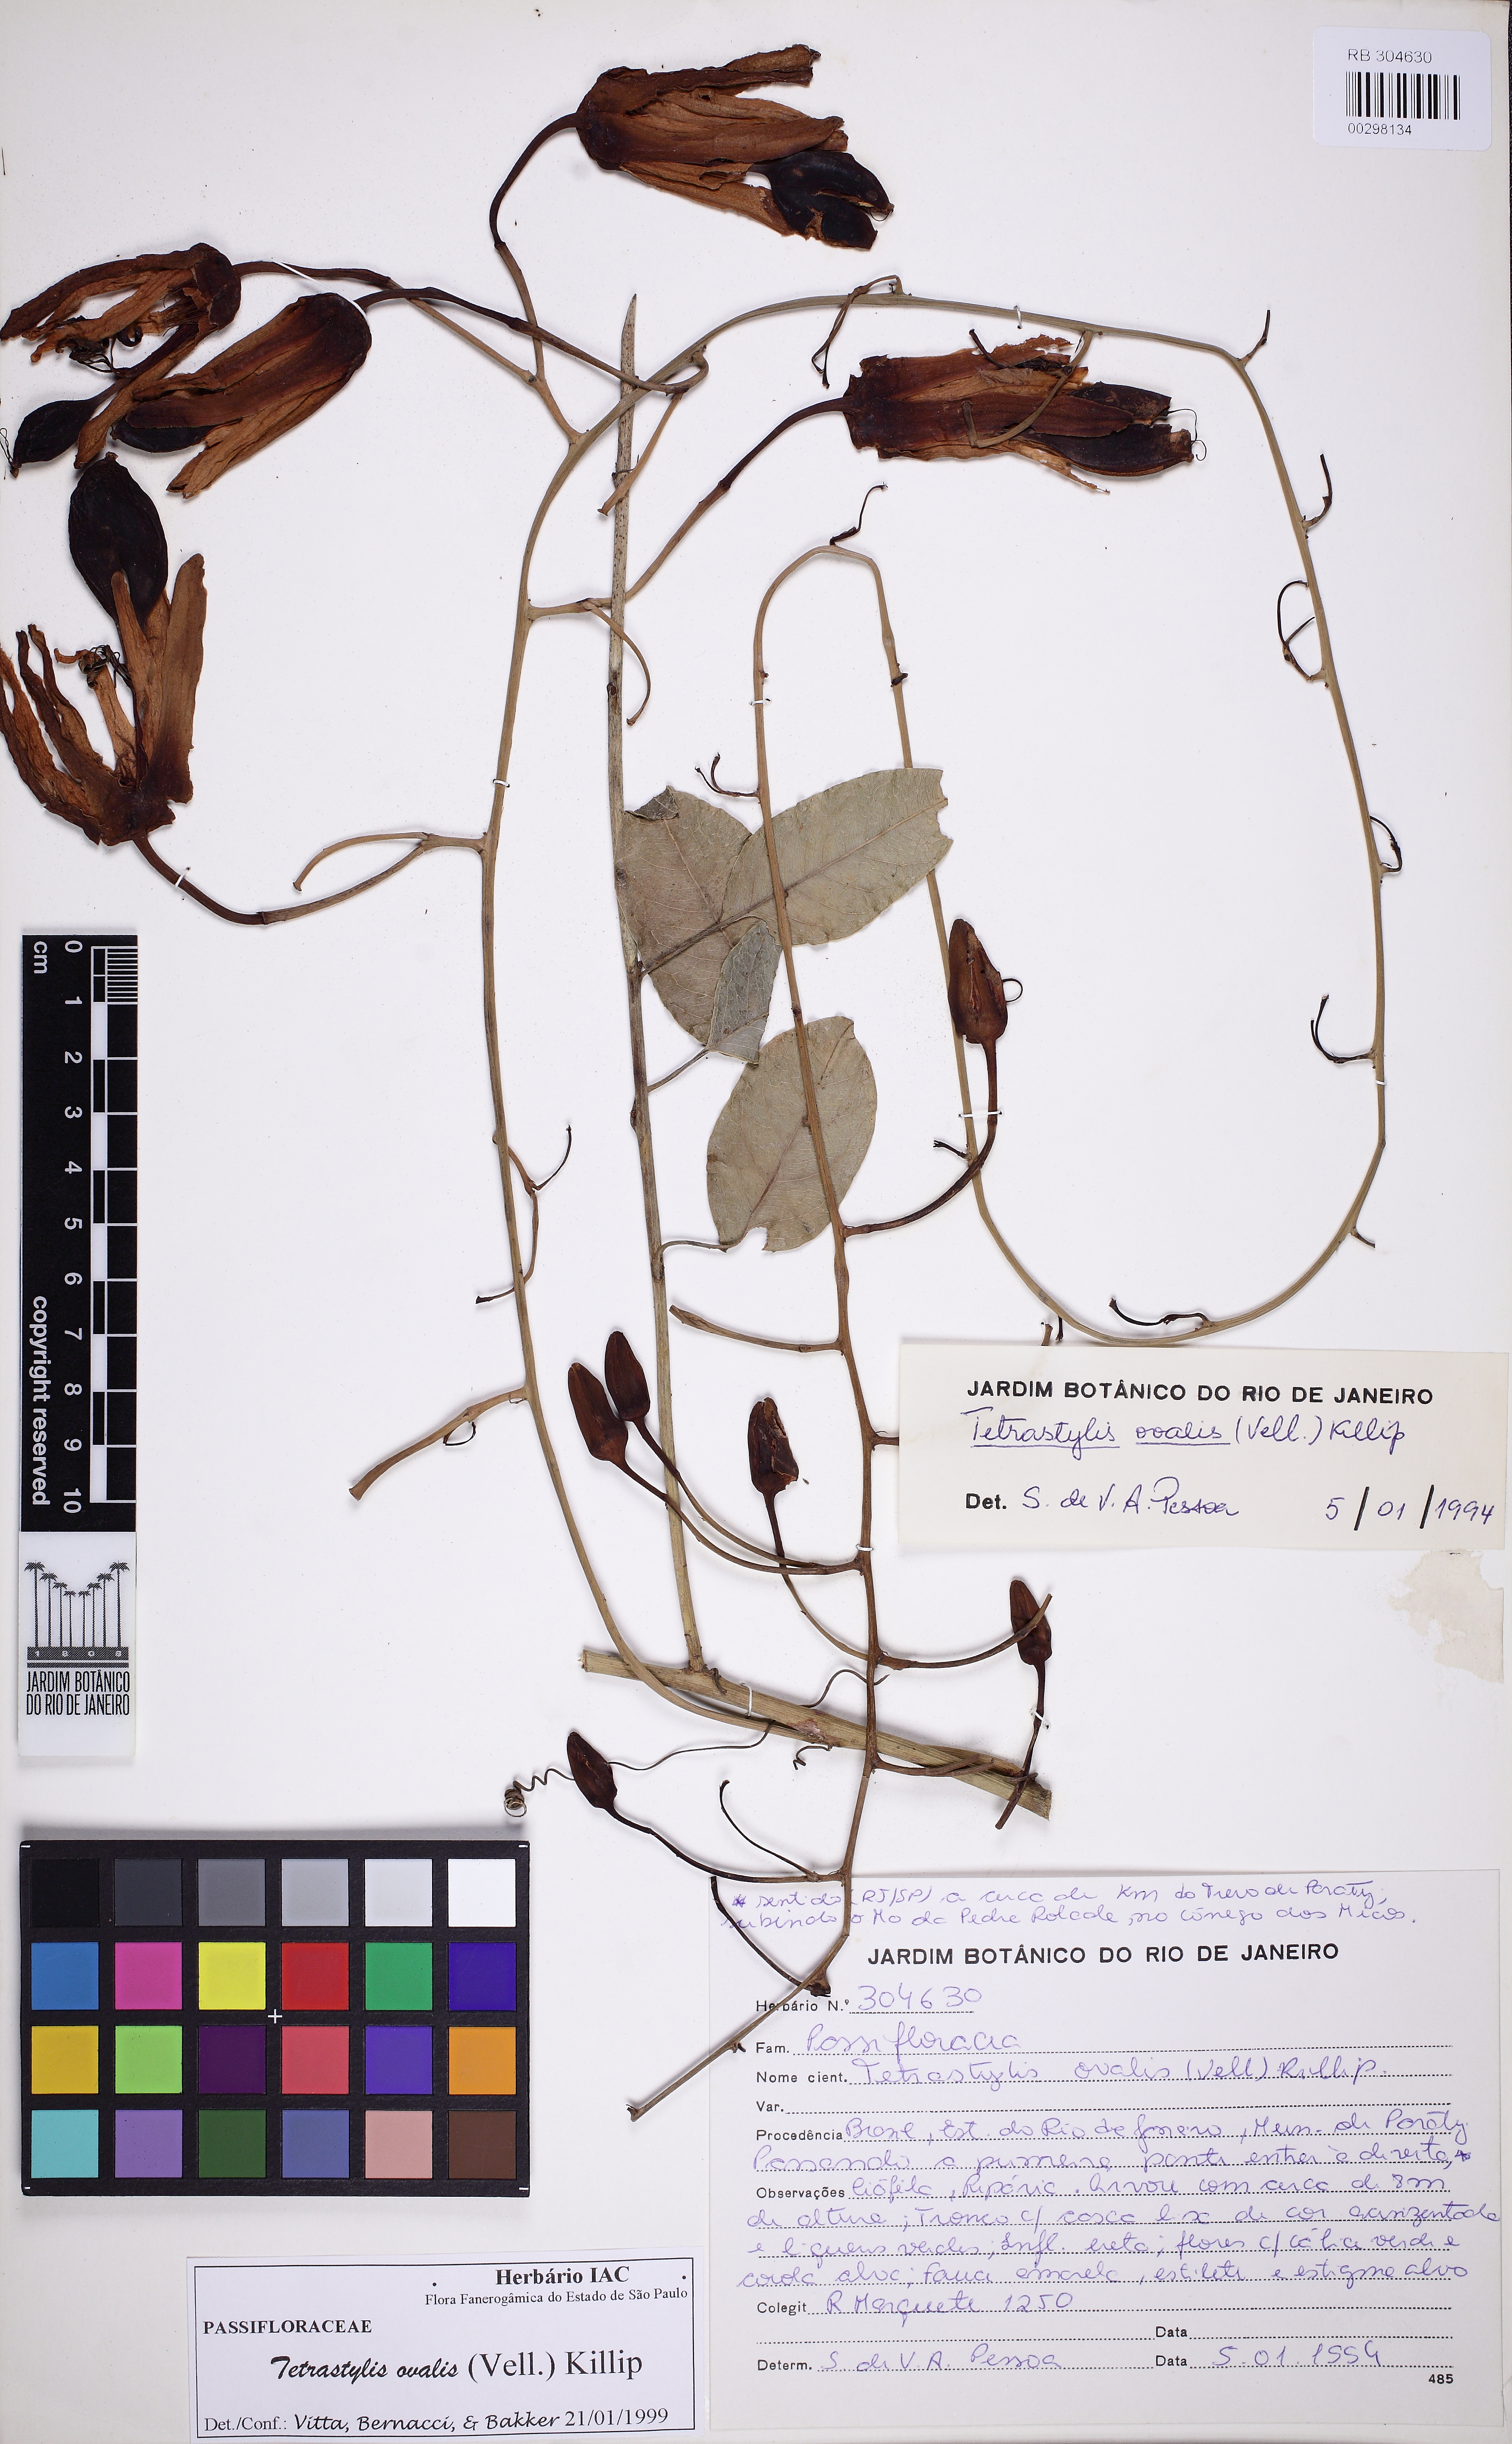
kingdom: Plantae
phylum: Tracheophyta
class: Magnoliopsida
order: Malpighiales
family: Passifloraceae
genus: Passiflora
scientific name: Passiflora ovalis
